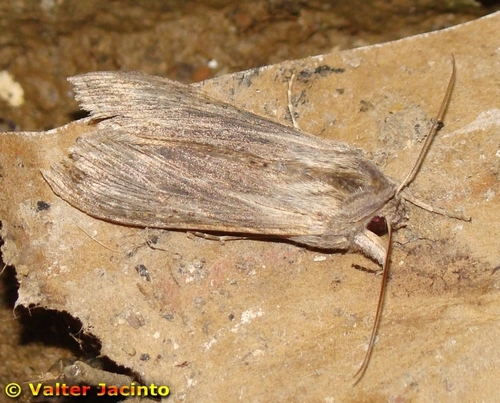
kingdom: Animalia
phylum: Arthropoda
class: Insecta
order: Lepidoptera
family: Noctuidae
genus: Cucullia
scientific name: Cucullia calendulae
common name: Marigold shark
